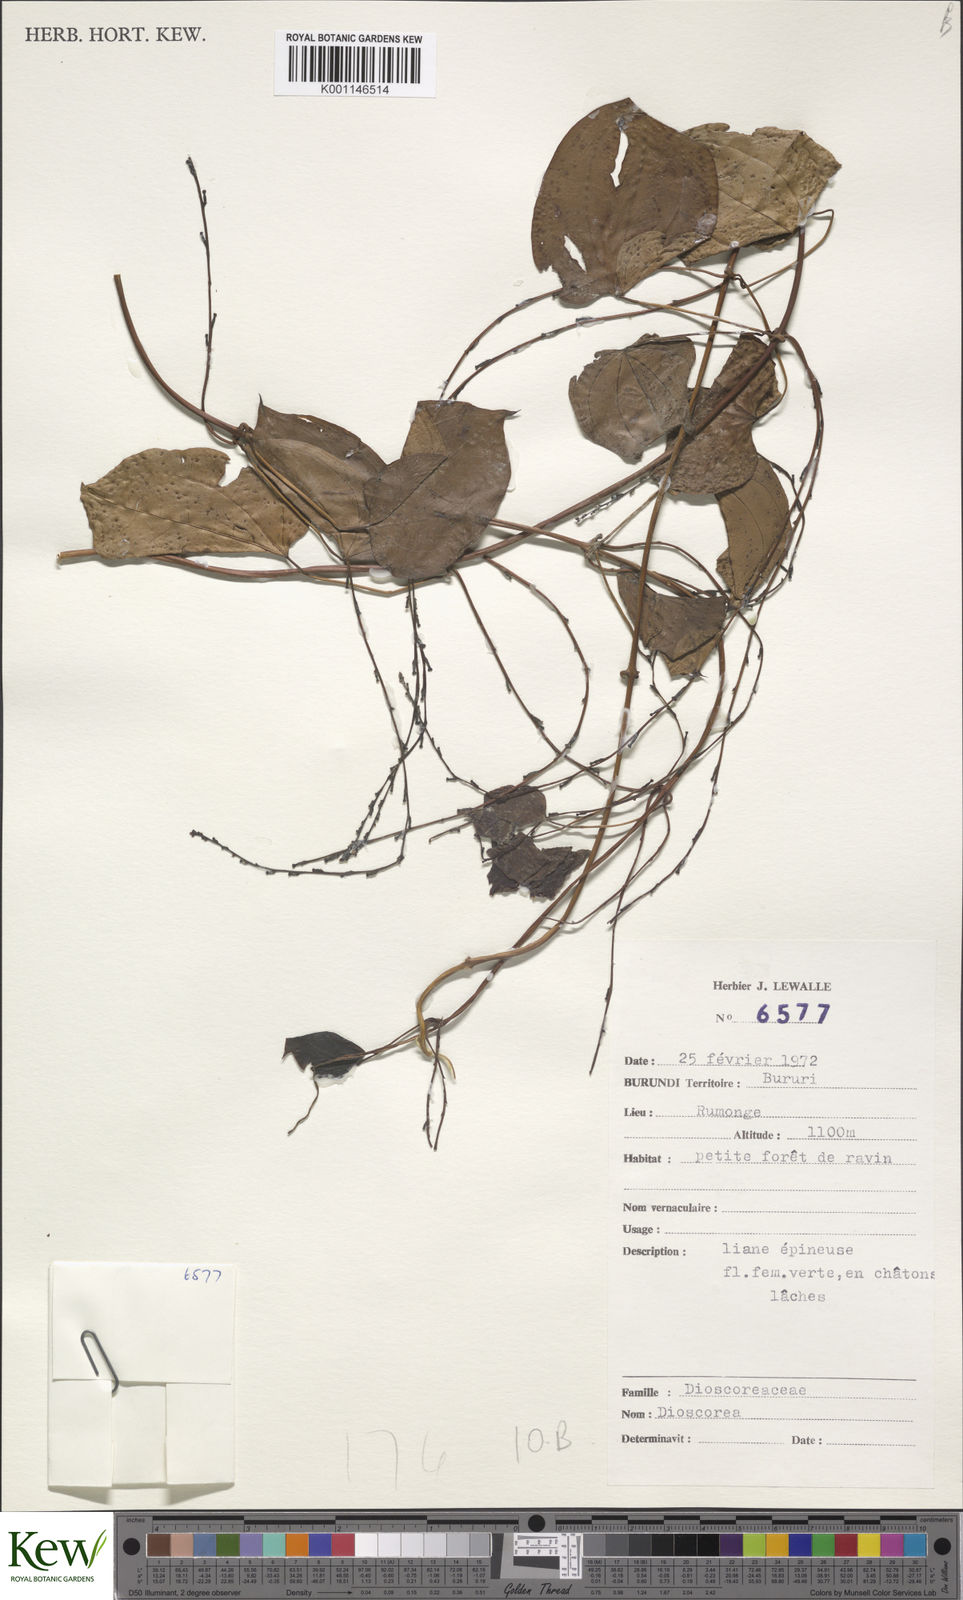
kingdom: Plantae
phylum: Tracheophyta
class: Liliopsida
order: Dioscoreales
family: Dioscoreaceae
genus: Dioscorea
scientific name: Dioscorea
